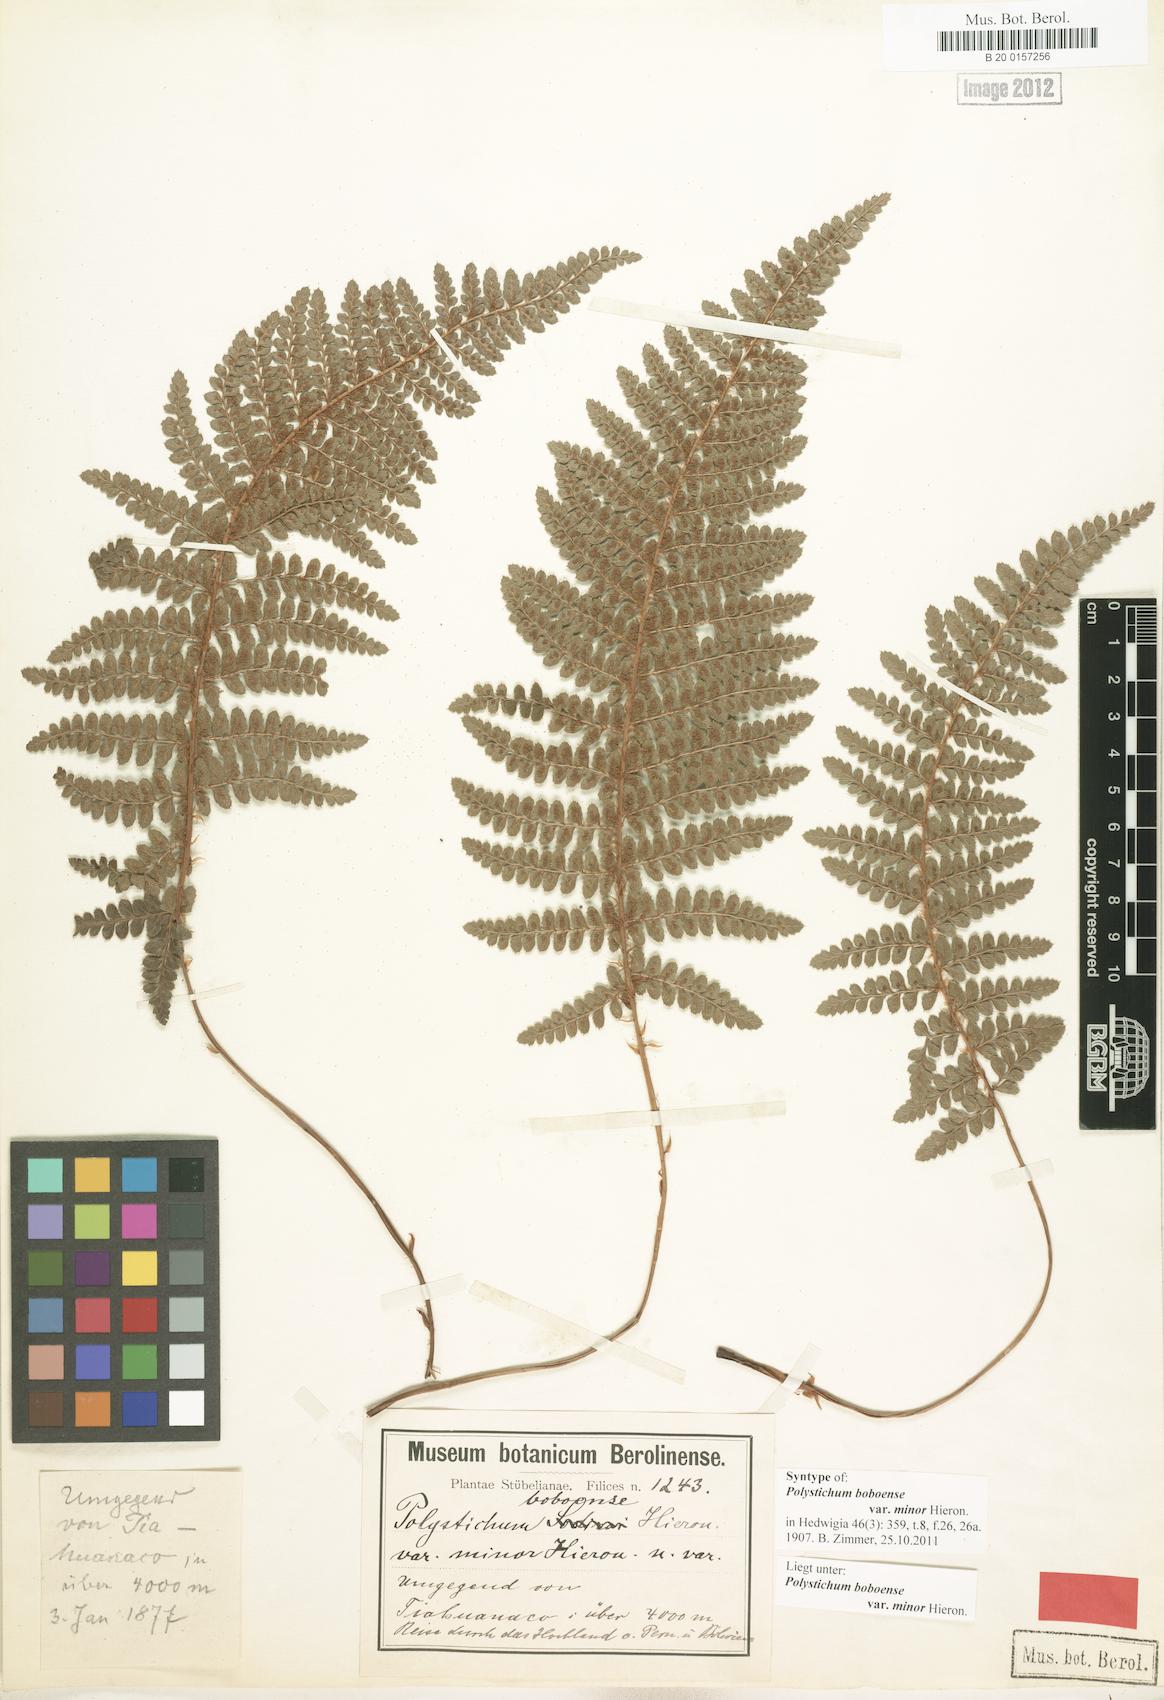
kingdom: Plantae
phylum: Tracheophyta
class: Polypodiopsida
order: Polypodiales
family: Dryopteridaceae
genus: Polystichum
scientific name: Polystichum orbiculatum
